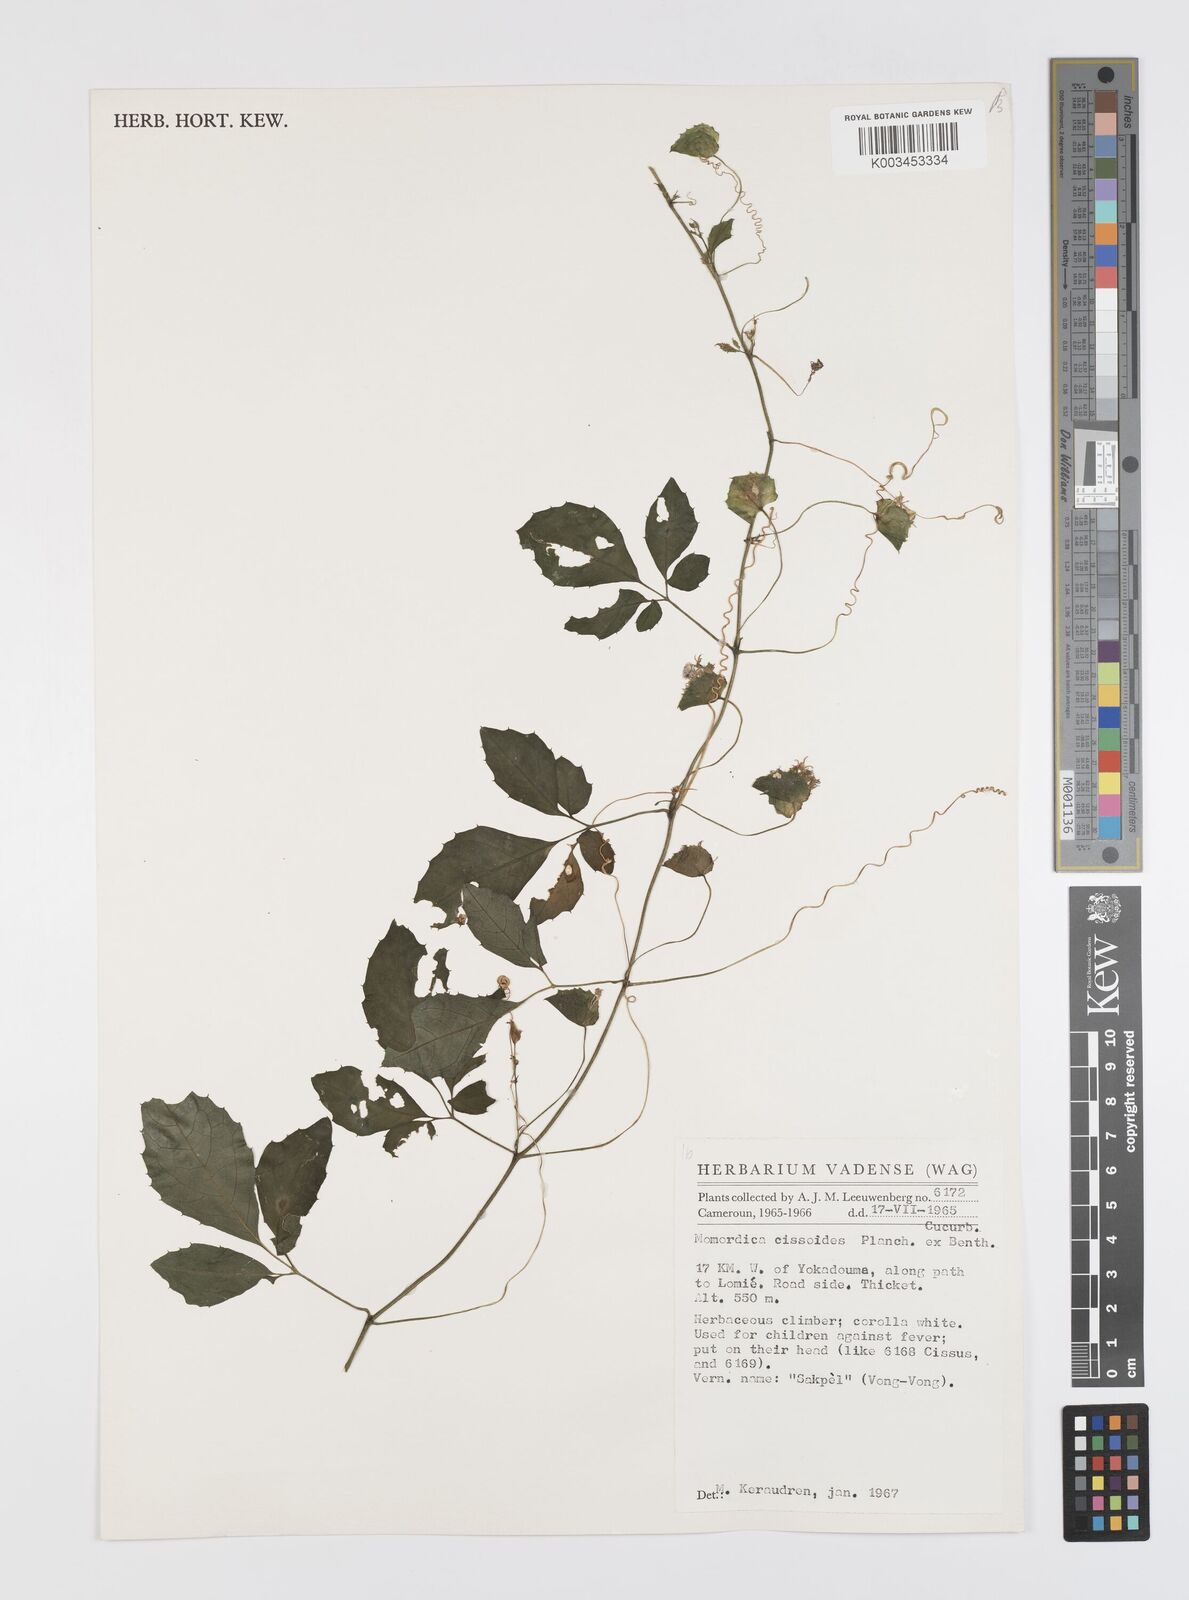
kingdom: Plantae
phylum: Tracheophyta
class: Magnoliopsida
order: Cucurbitales
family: Cucurbitaceae
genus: Momordica
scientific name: Momordica cissoides
